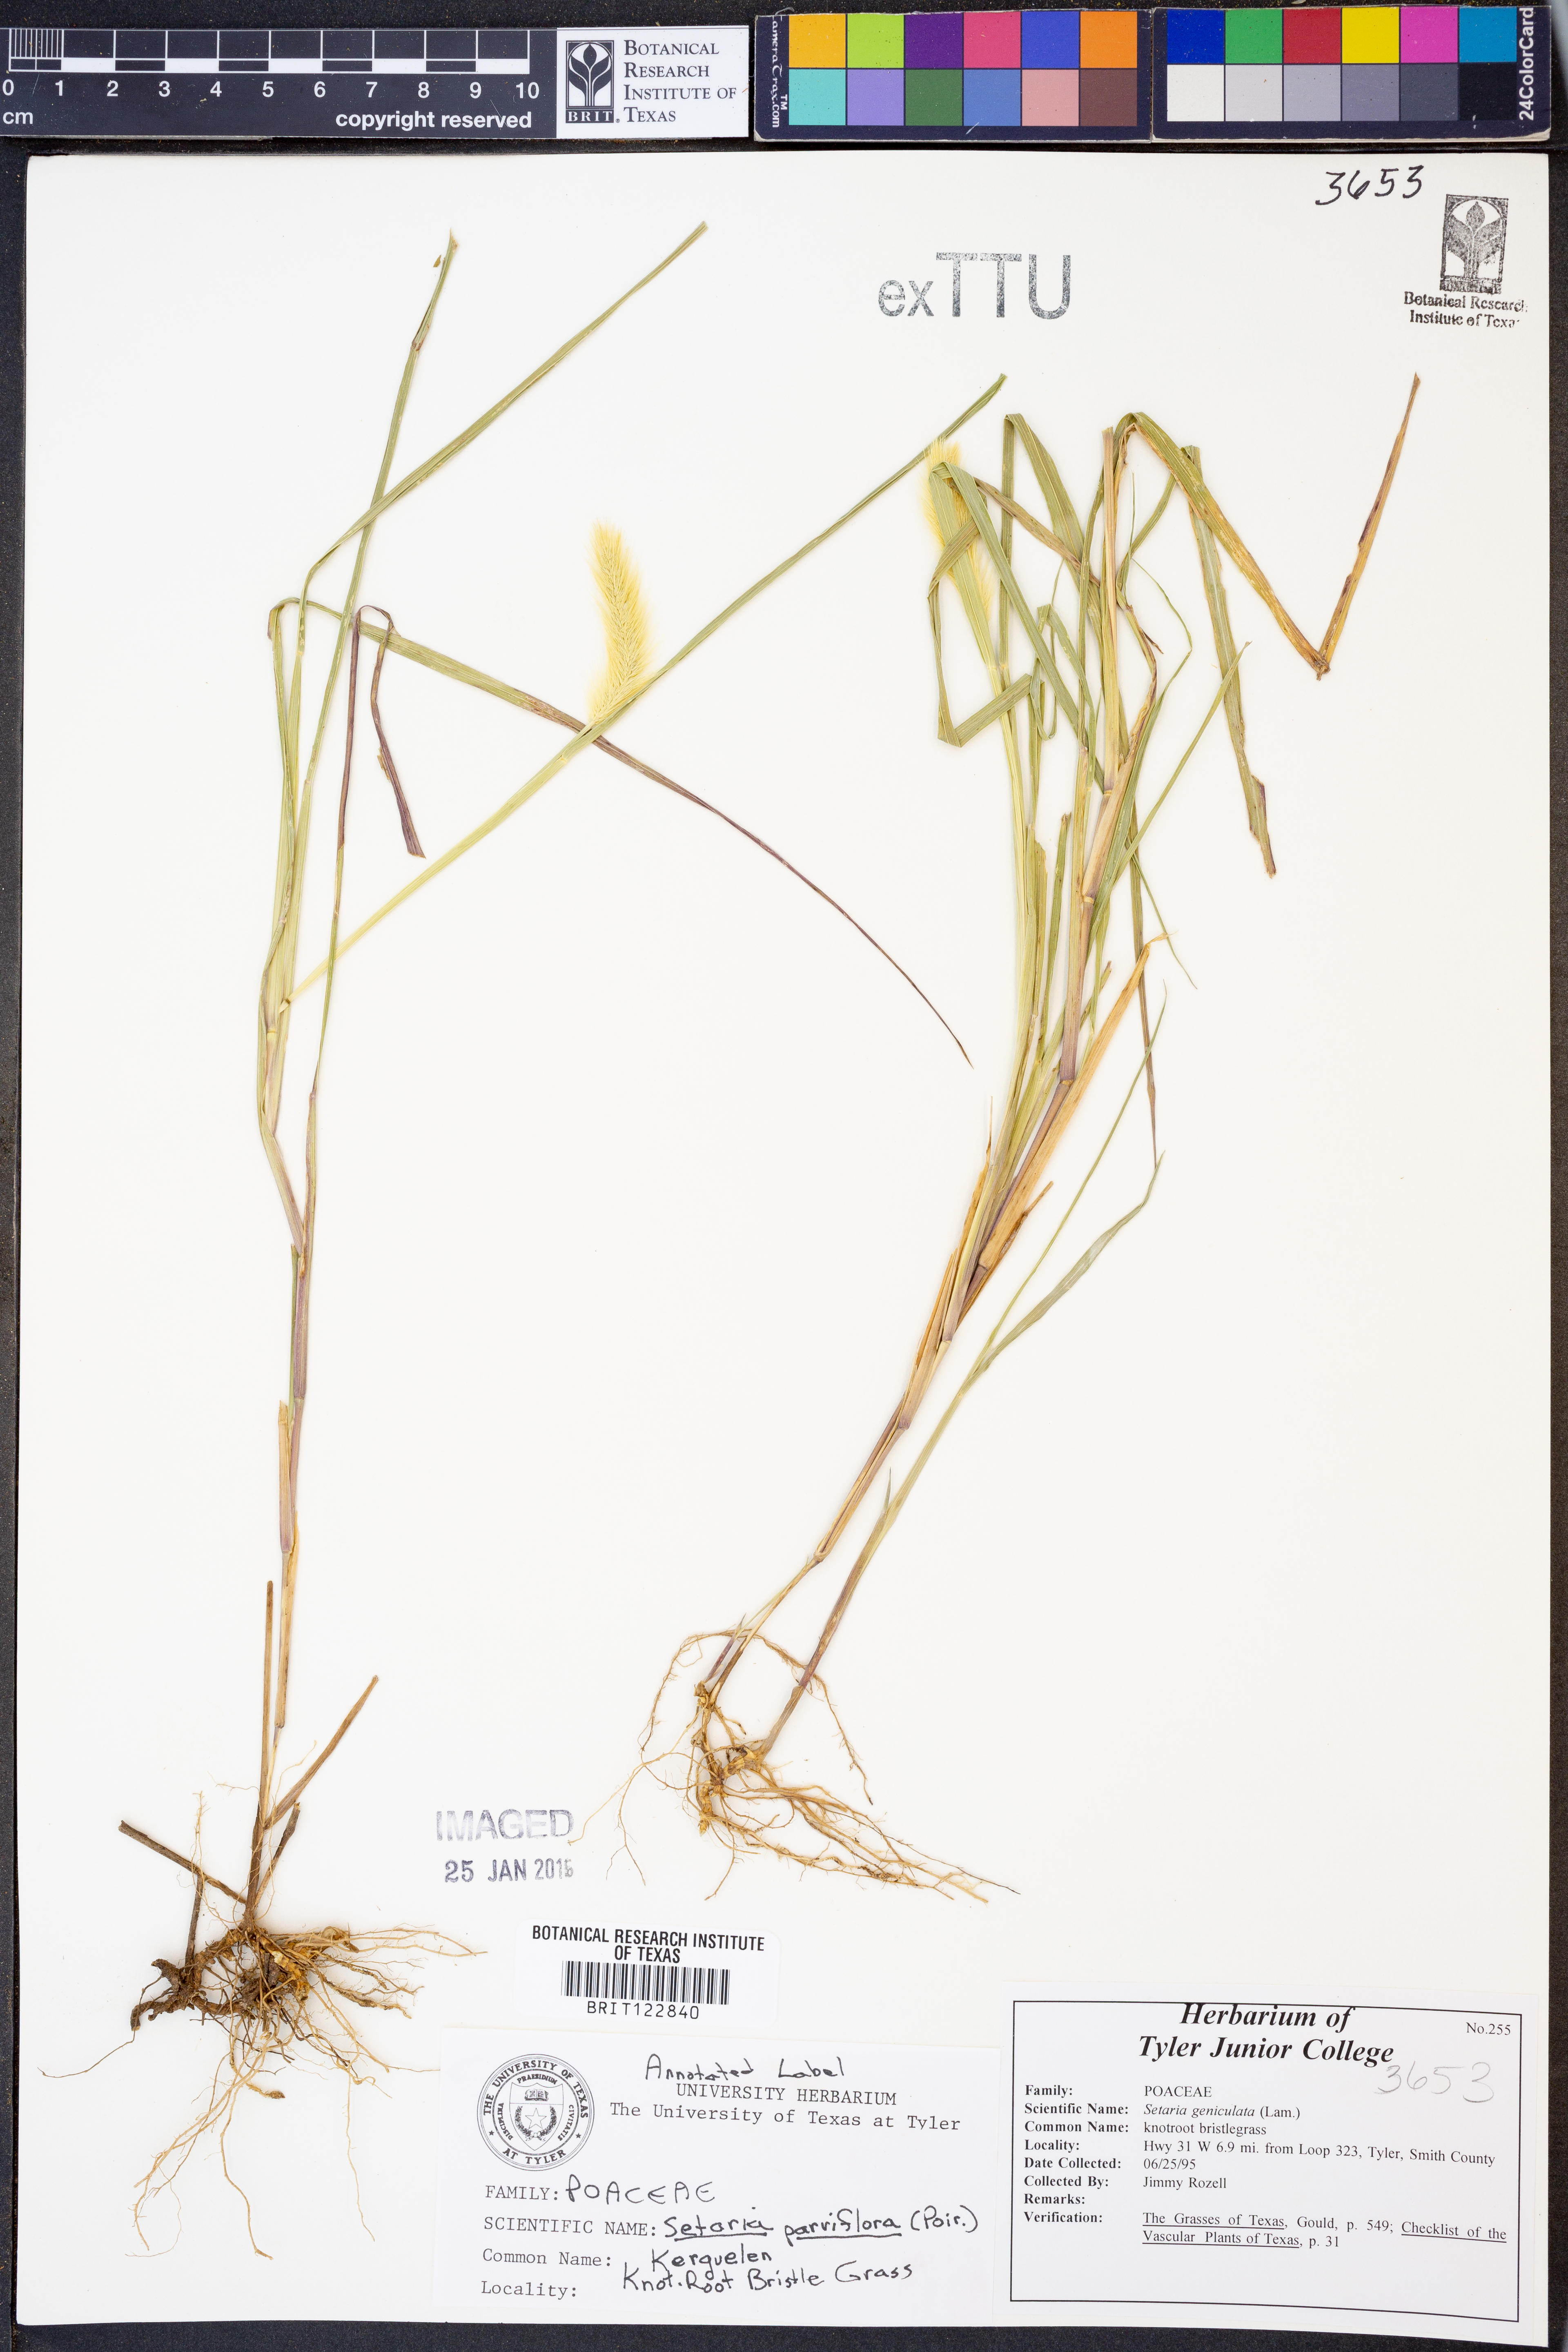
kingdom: Plantae
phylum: Tracheophyta
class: Liliopsida
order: Poales
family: Poaceae
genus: Setaria
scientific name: Setaria pumila
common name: Yellow bristle-grass
